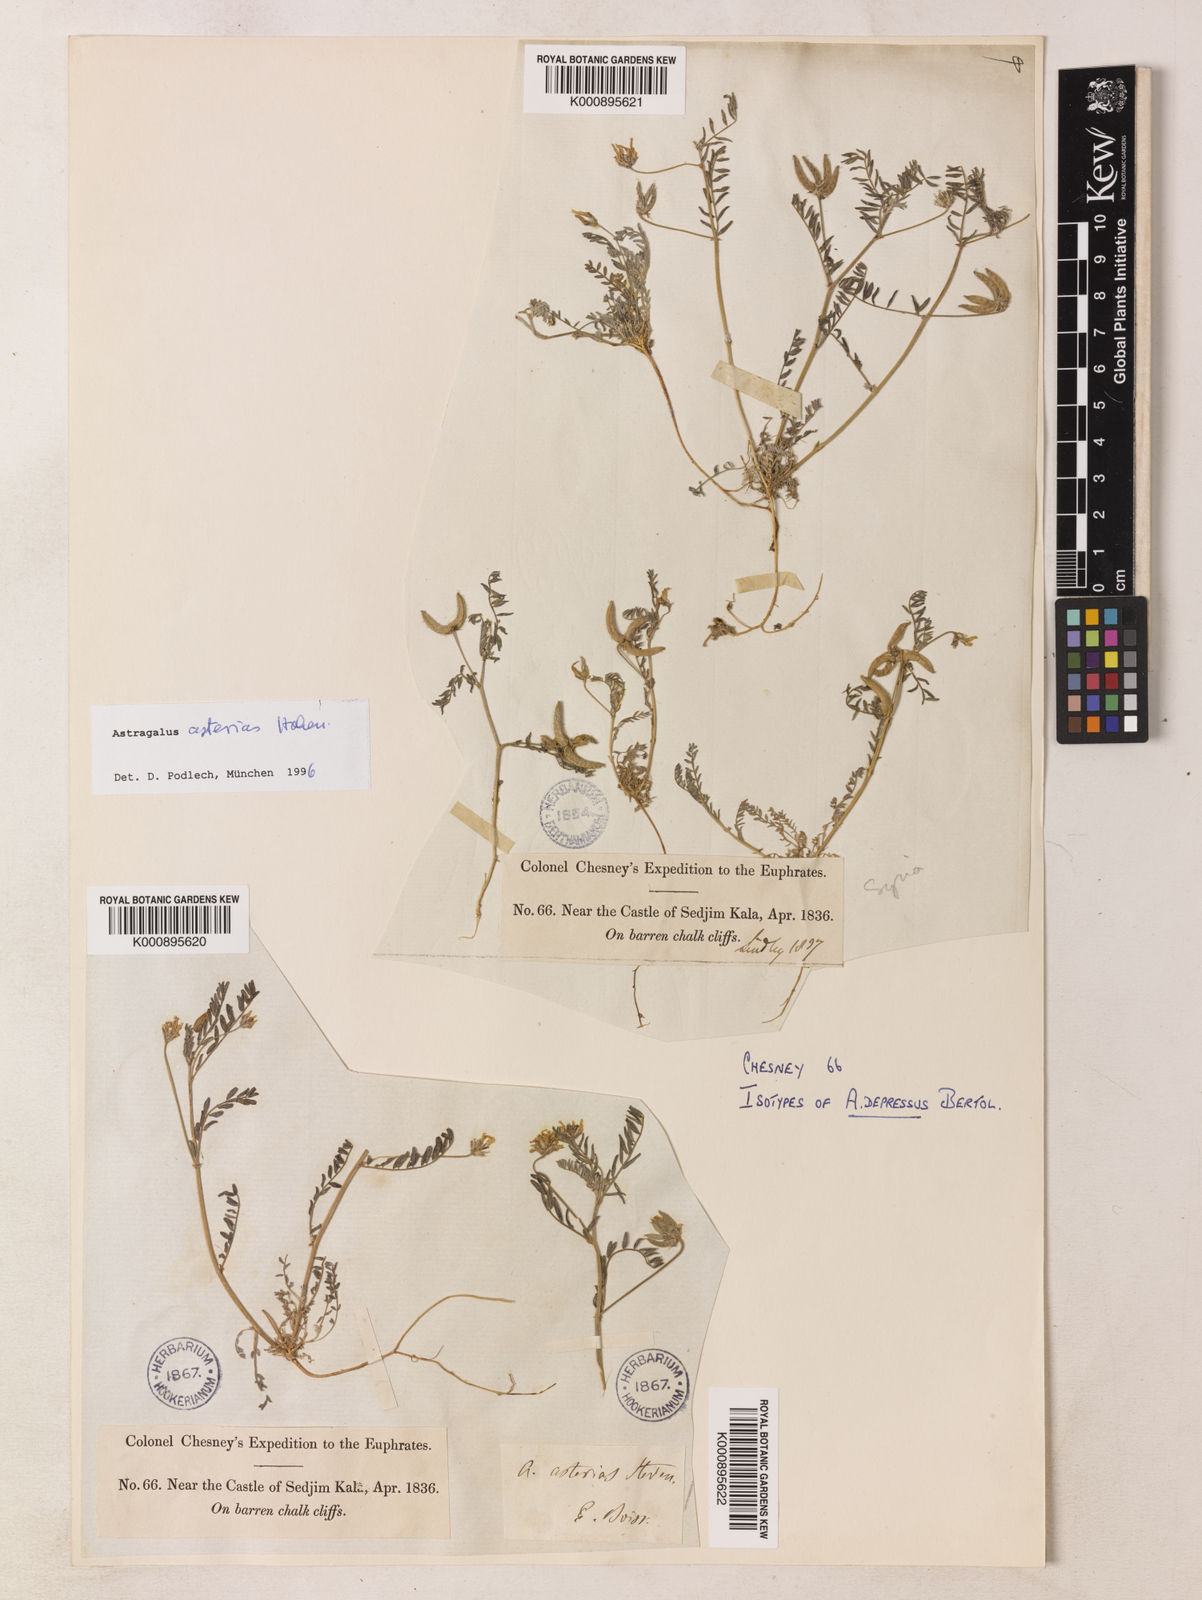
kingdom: Plantae
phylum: Tracheophyta
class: Magnoliopsida
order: Fabales
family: Fabaceae
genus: Astragalus
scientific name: Astragalus
